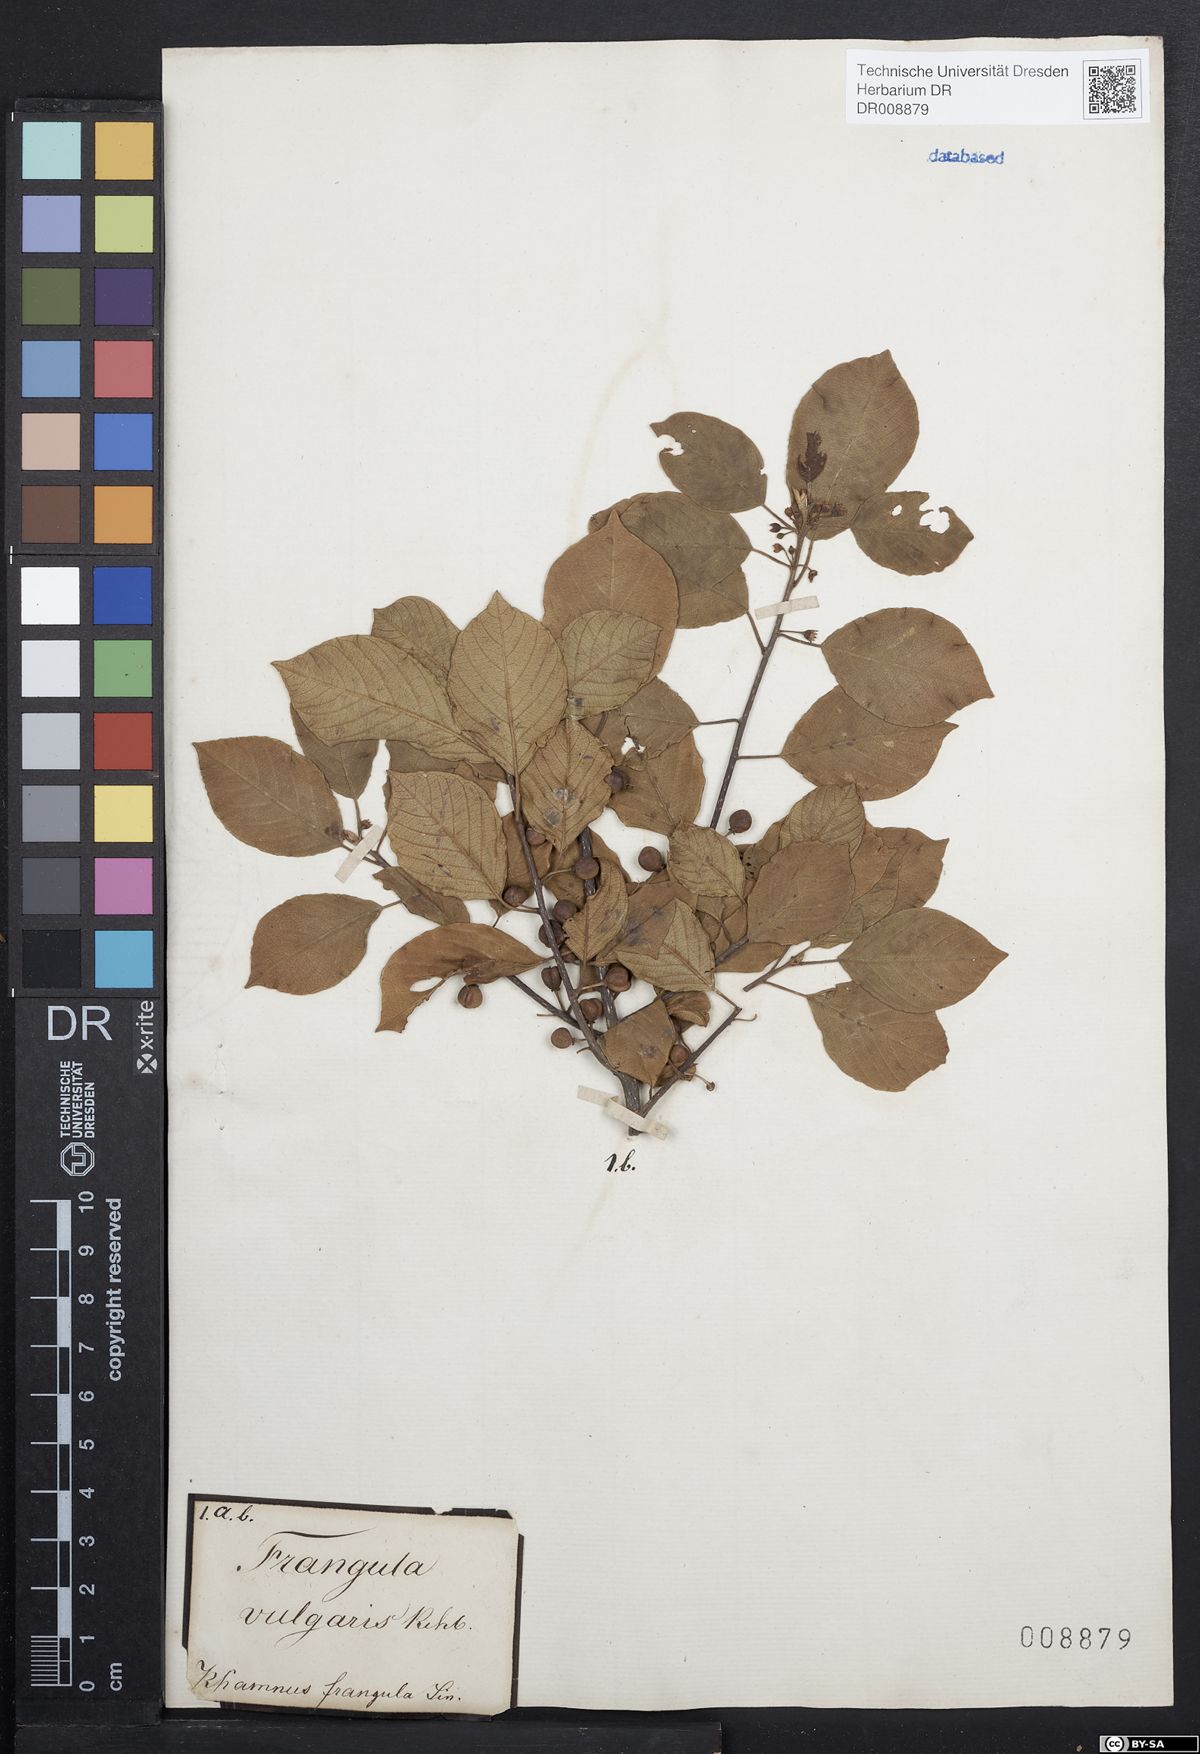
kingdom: Plantae
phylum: Tracheophyta
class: Magnoliopsida
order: Rosales
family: Rhamnaceae
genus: Frangula
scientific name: Frangula alnus
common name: Alder buckthorn
